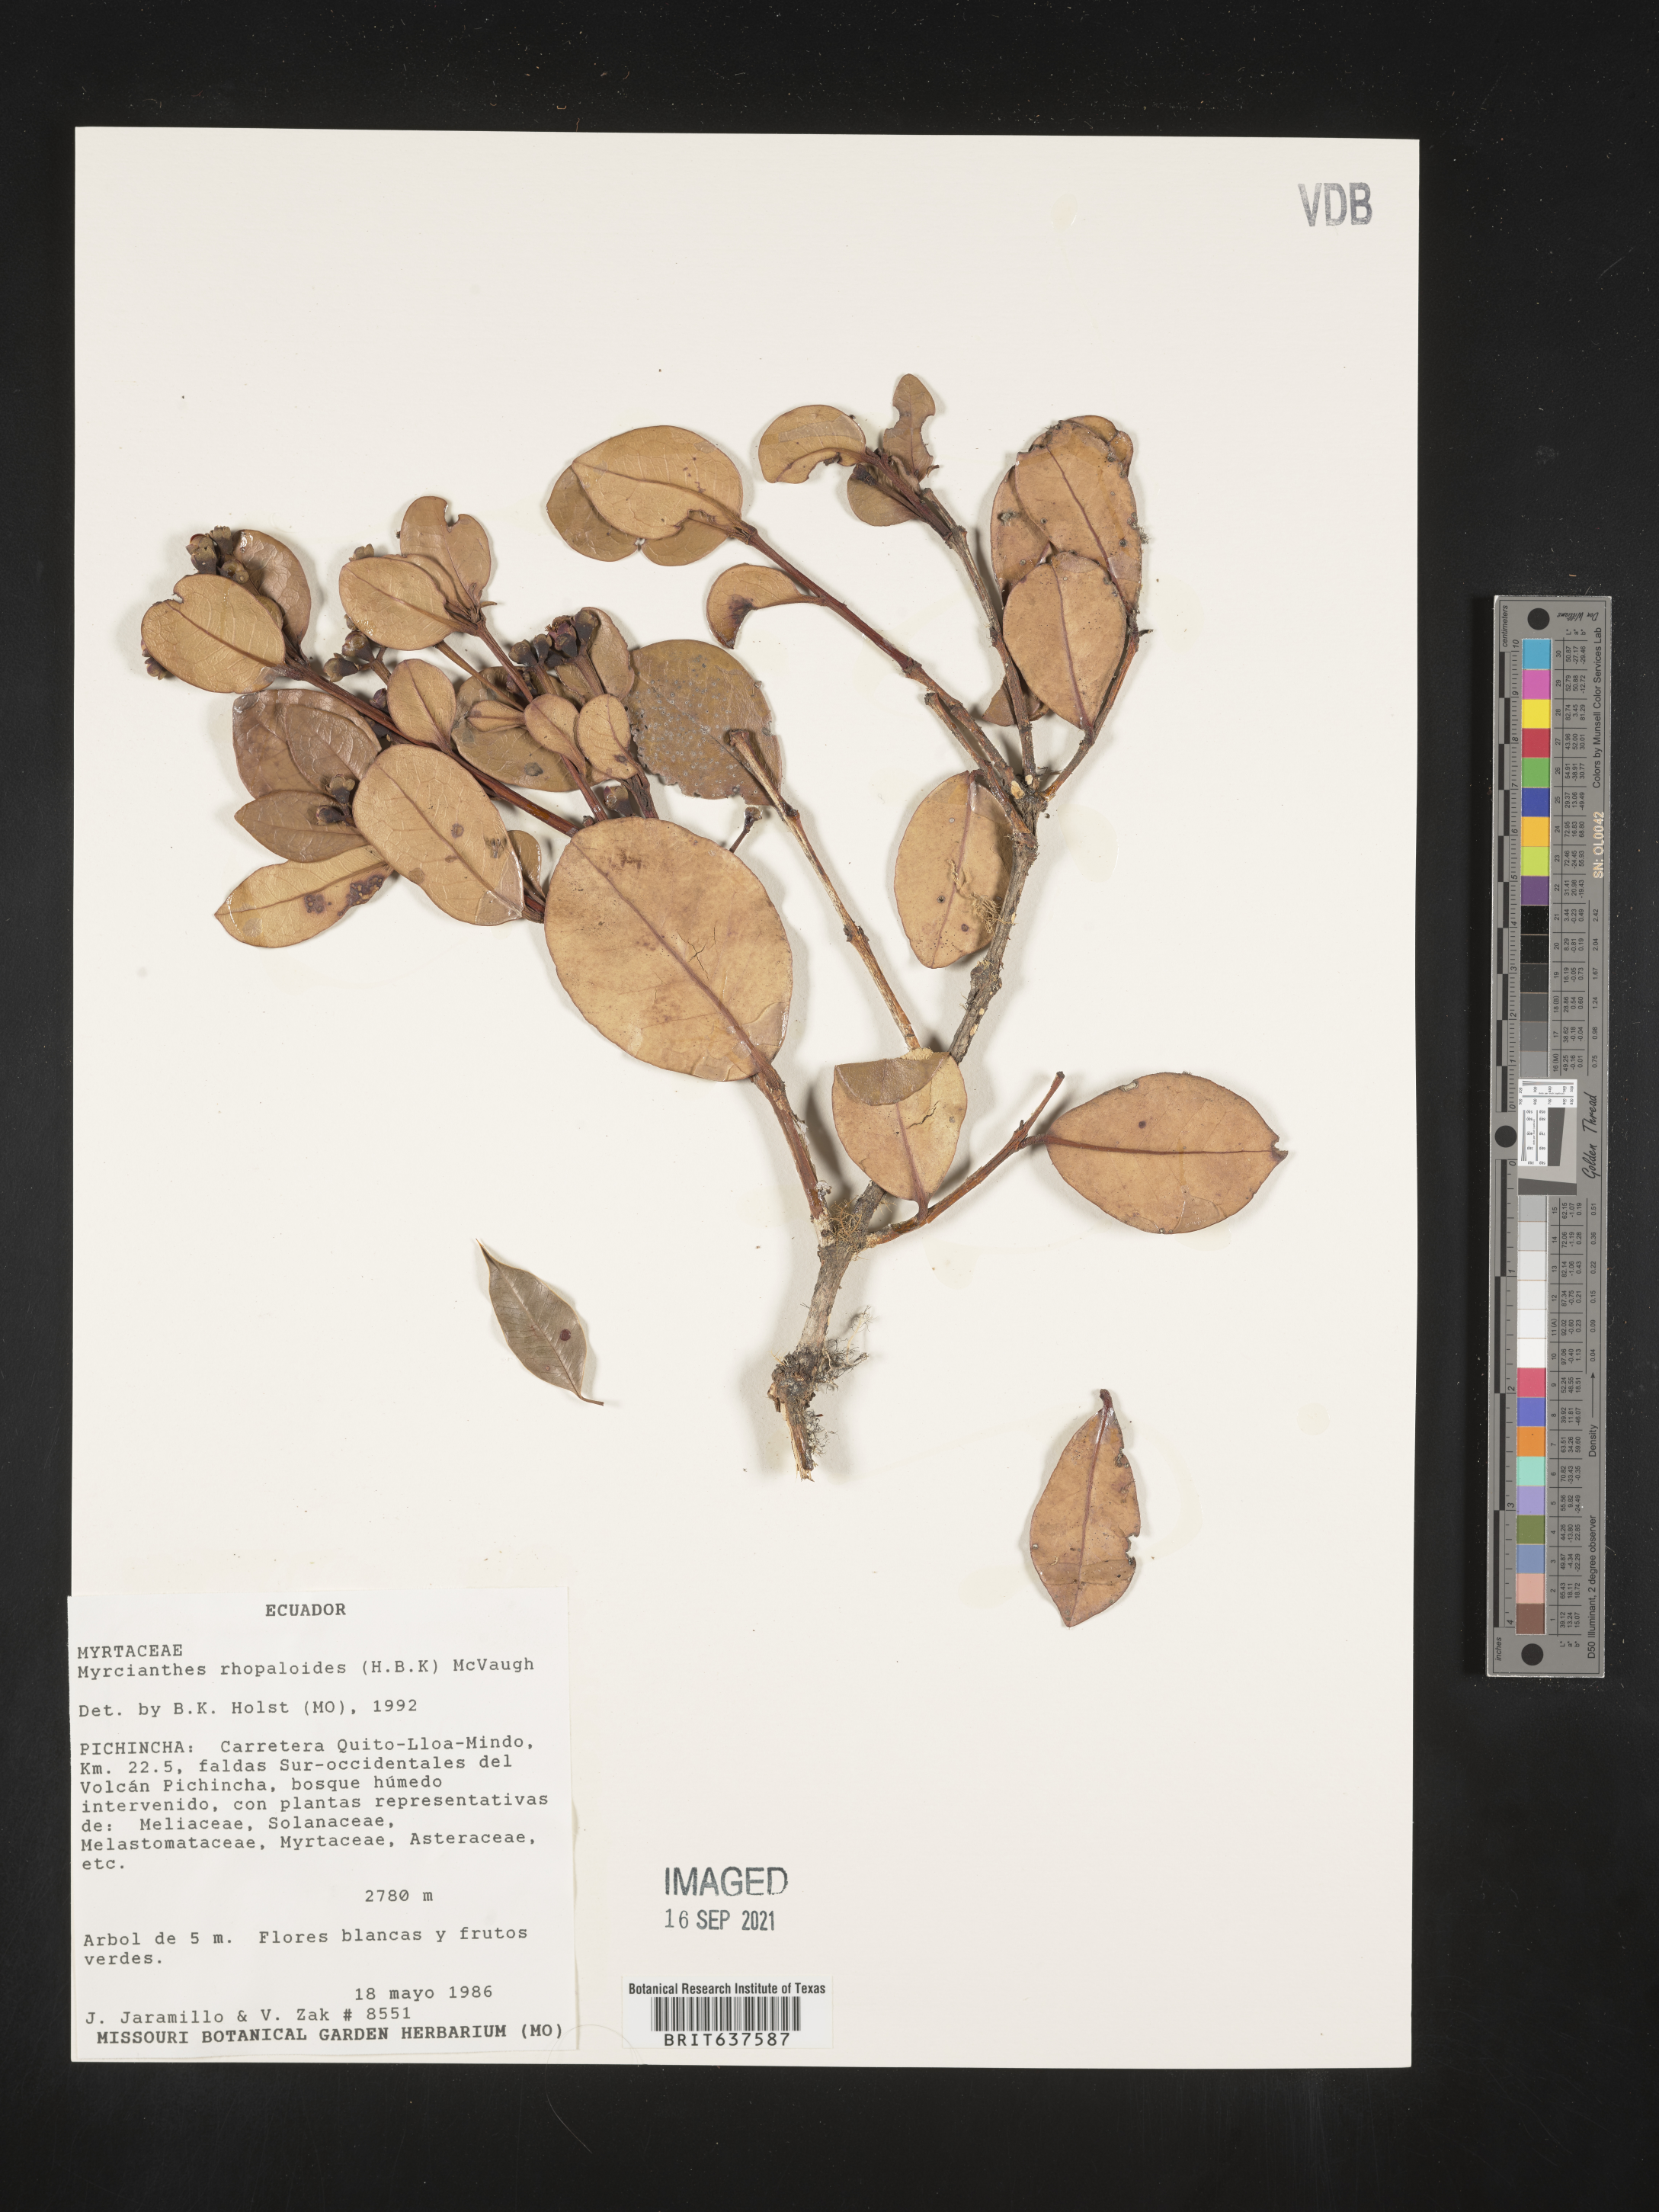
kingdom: Plantae
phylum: Tracheophyta
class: Magnoliopsida
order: Myrtales
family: Myrtaceae
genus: Myrcianthes
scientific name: Myrcianthes
